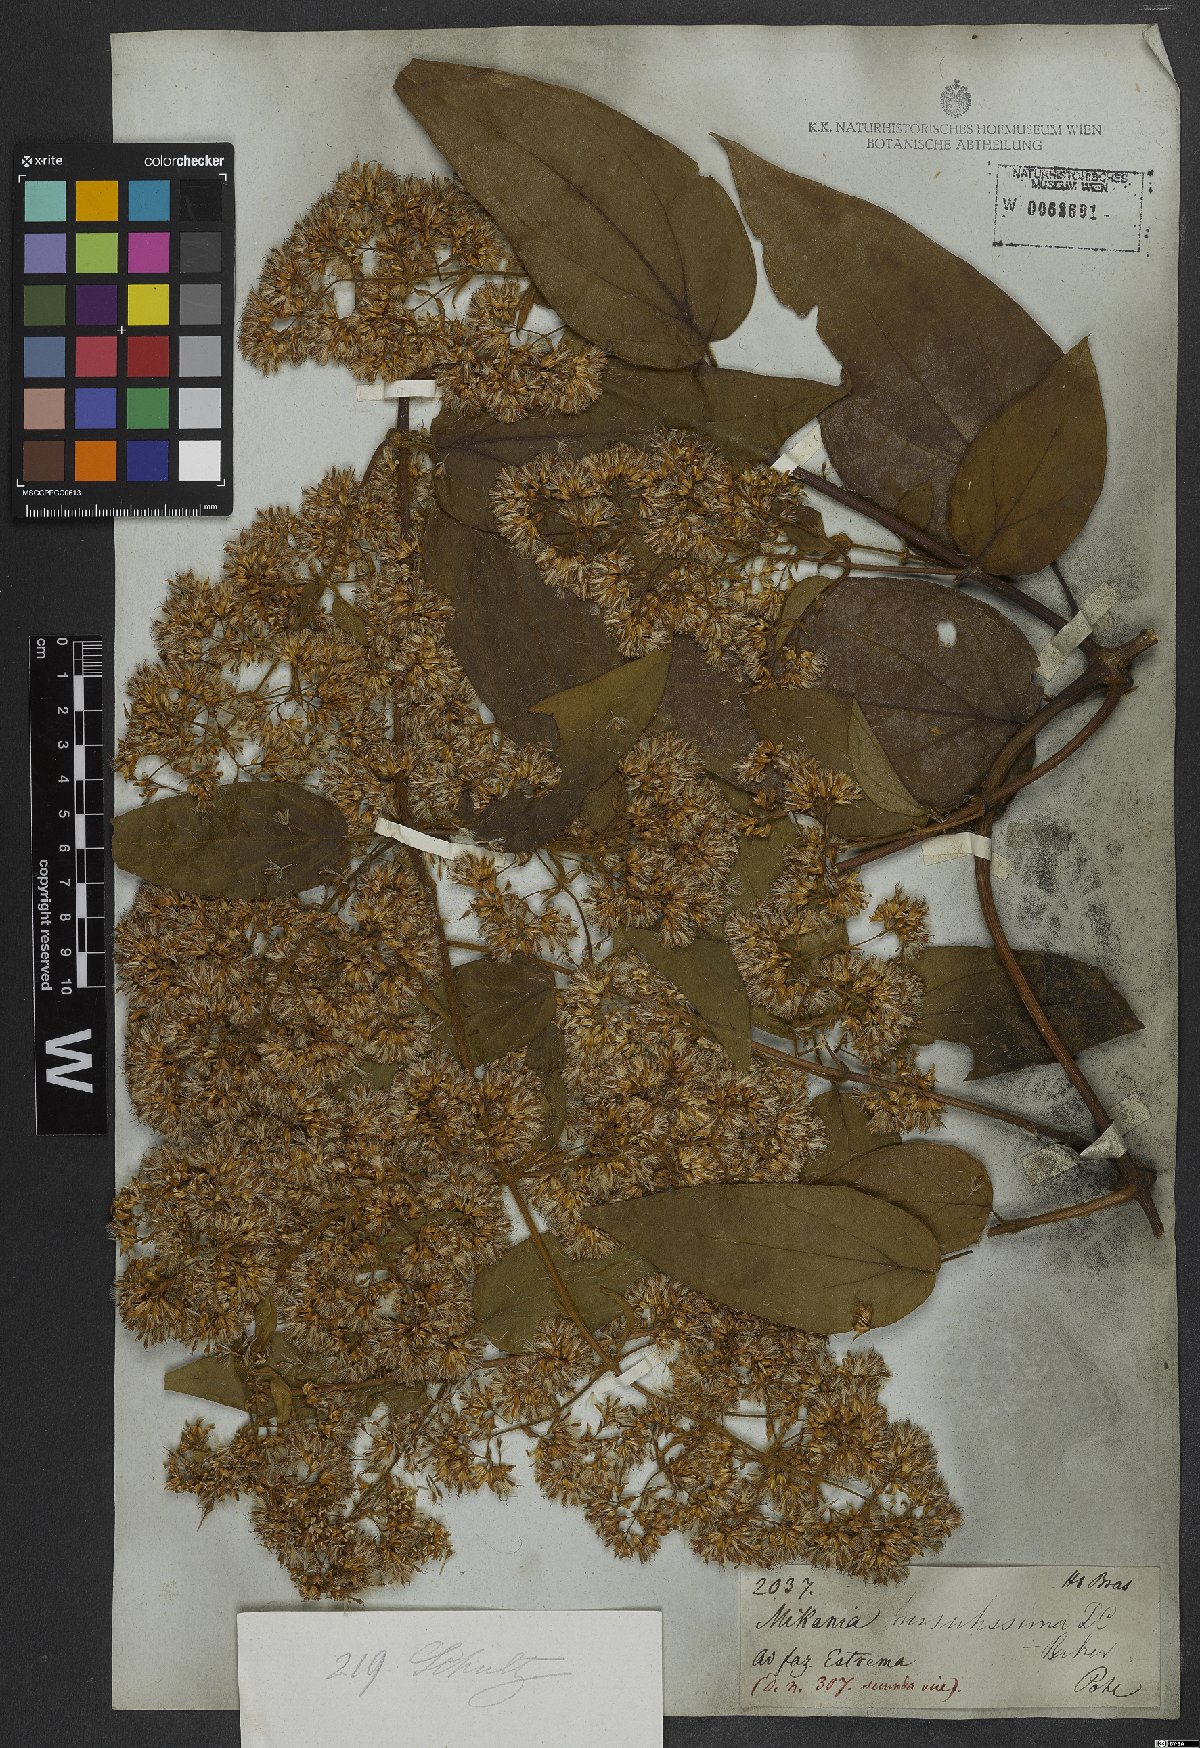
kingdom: Plantae
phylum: Tracheophyta
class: Magnoliopsida
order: Asterales
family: Asteraceae
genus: Mikania
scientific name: Mikania banisteriae
